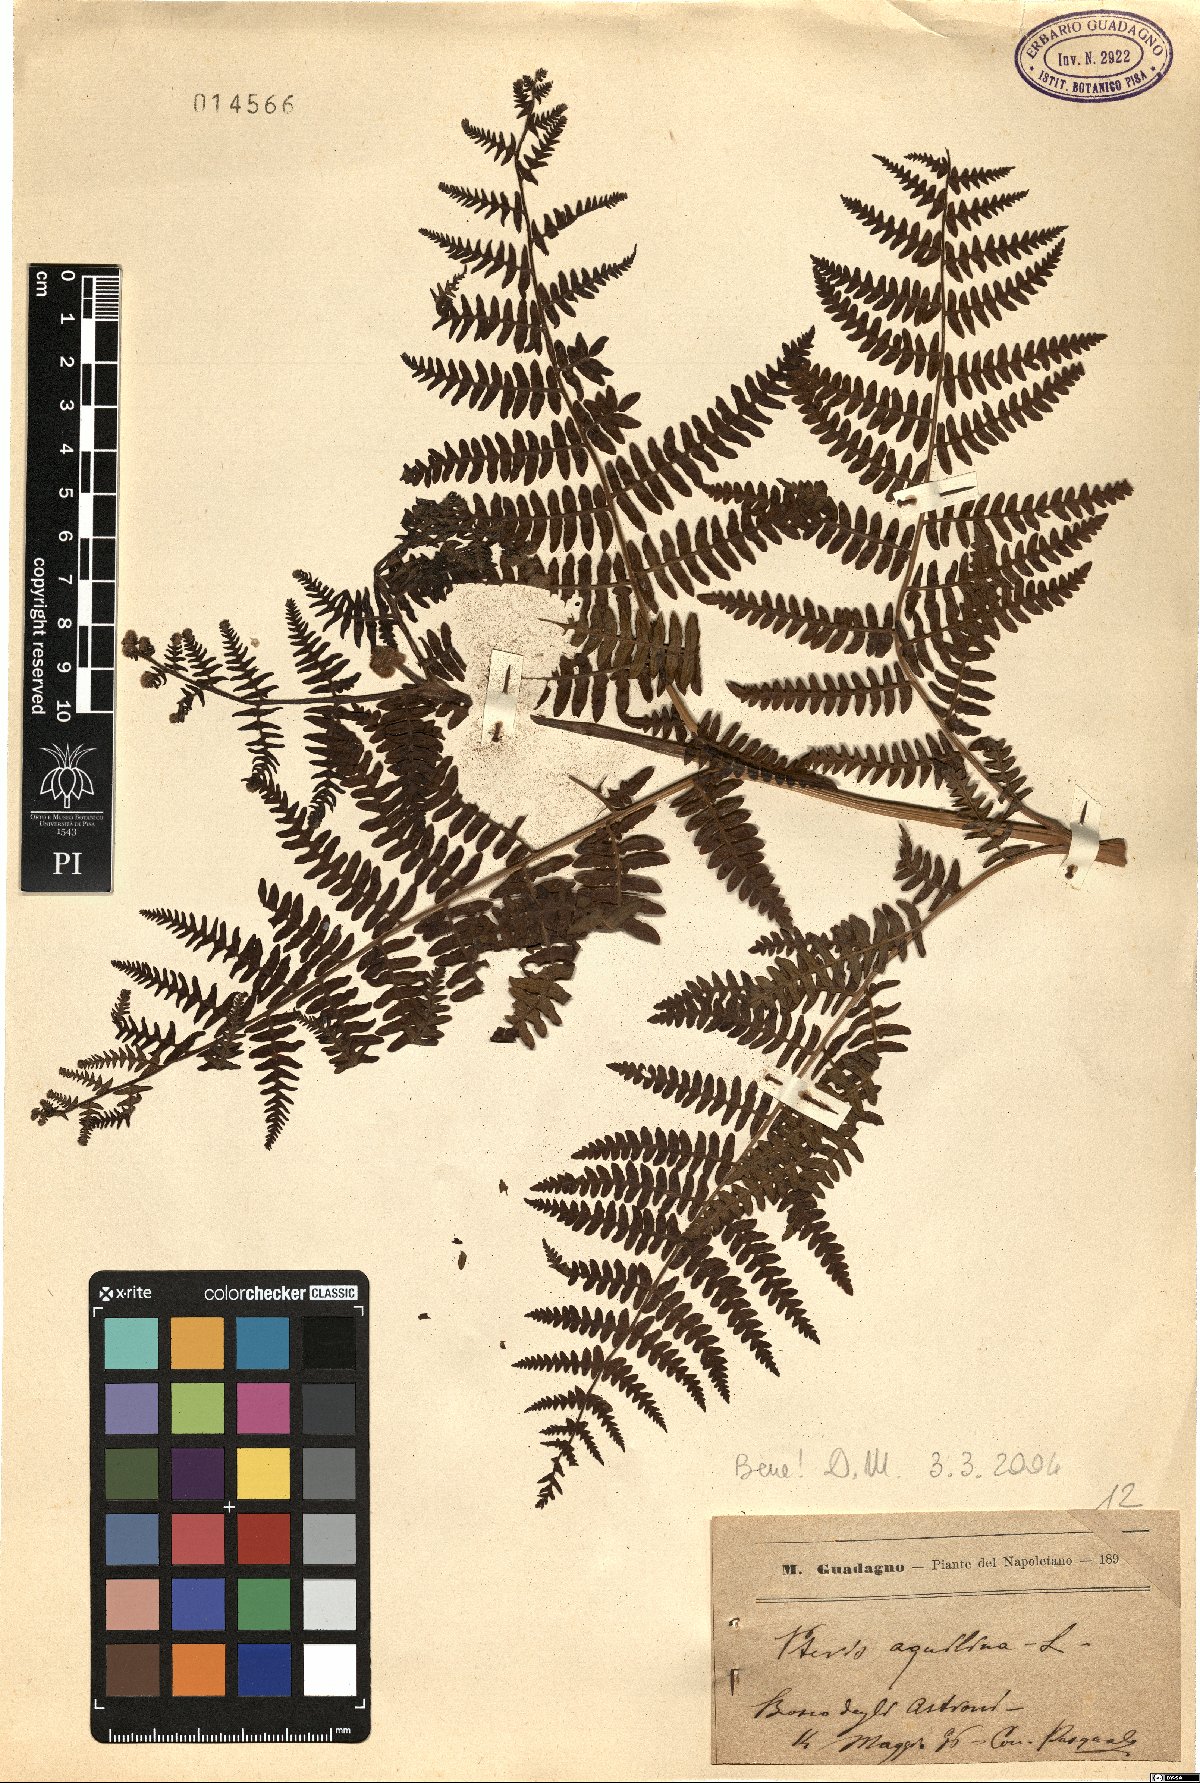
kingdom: Plantae
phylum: Tracheophyta
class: Polypodiopsida
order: Polypodiales
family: Dennstaedtiaceae
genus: Pteridium
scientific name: Pteridium aquilinum
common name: Bracken
